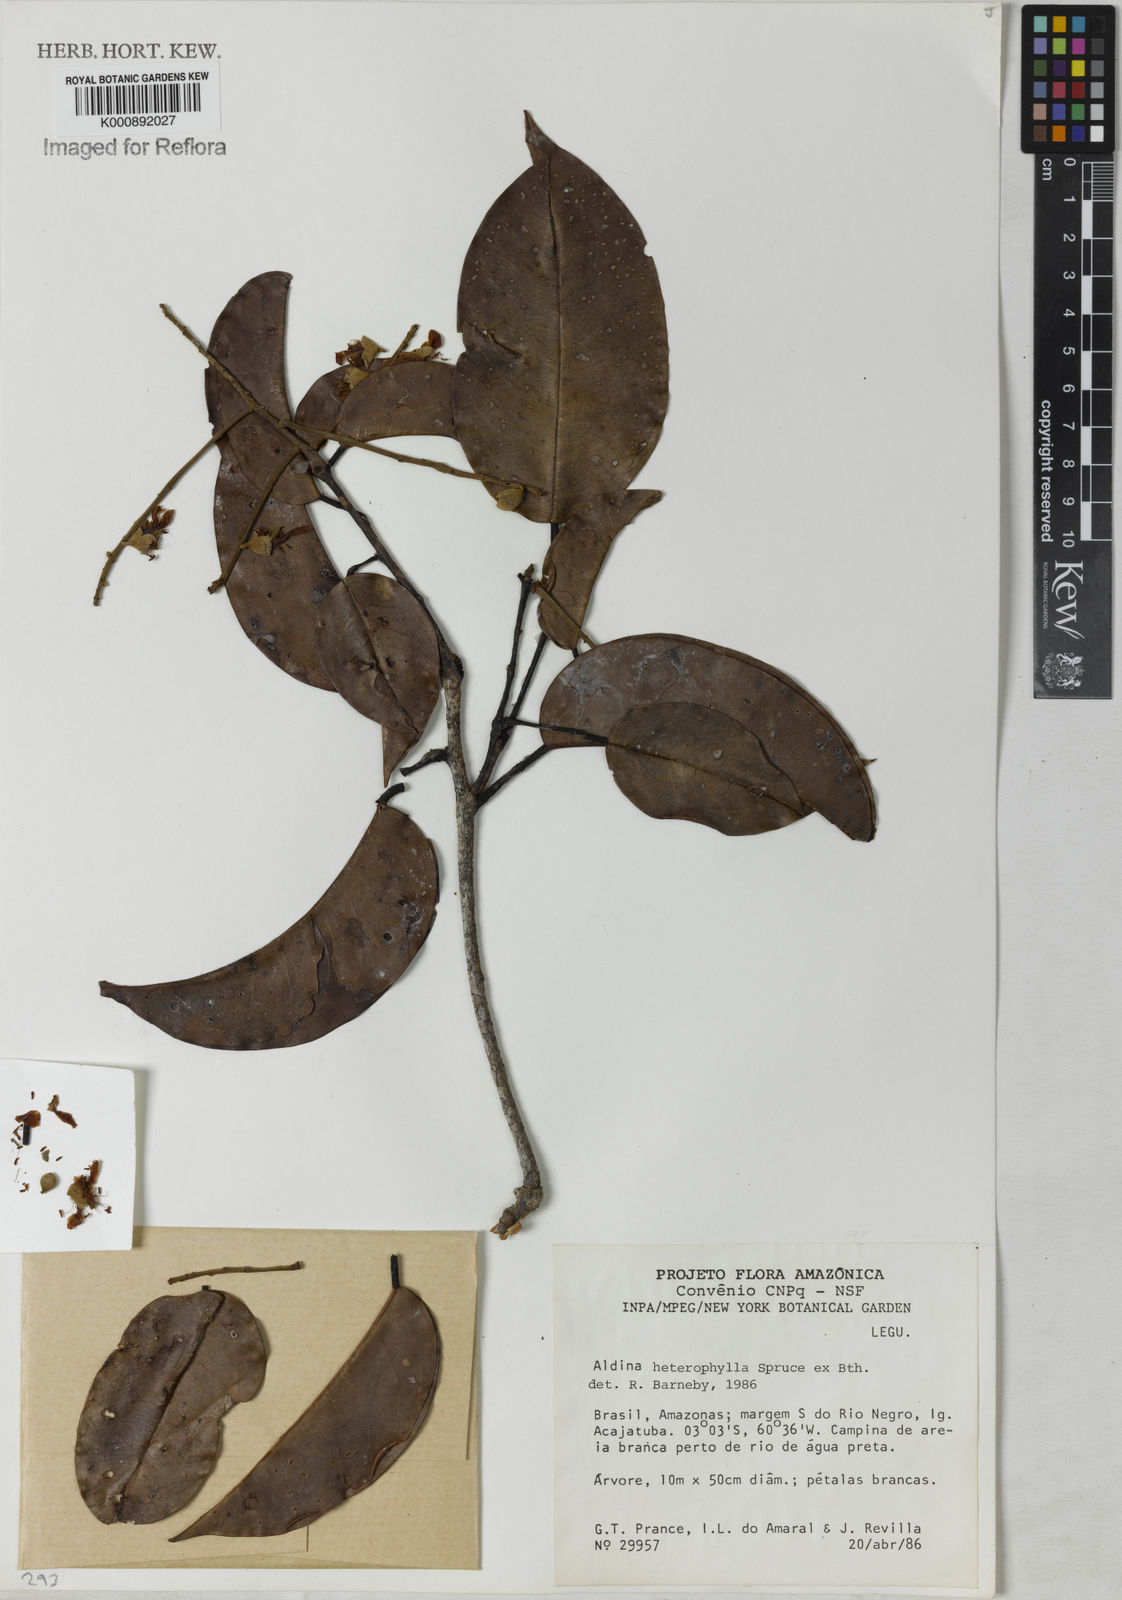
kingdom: Plantae
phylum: Tracheophyta
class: Magnoliopsida
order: Fabales
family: Fabaceae
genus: Aldina
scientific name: Aldina heterophylla
